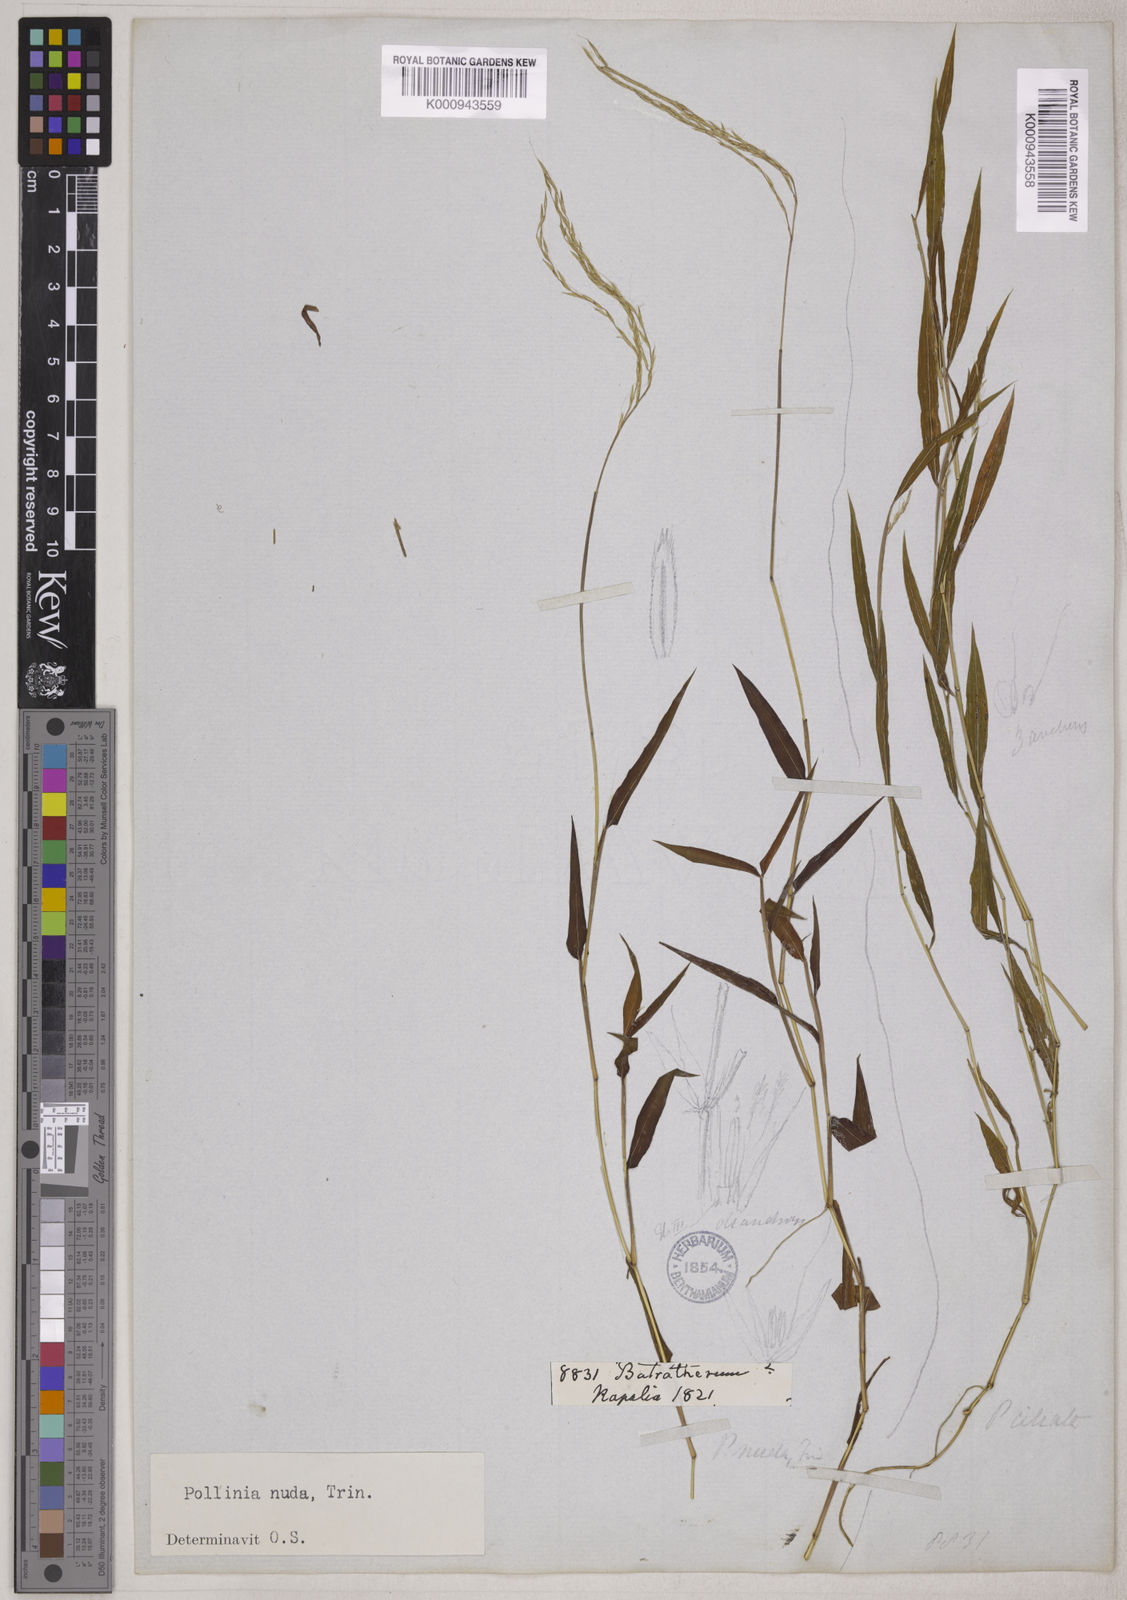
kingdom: Plantae
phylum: Tracheophyta
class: Liliopsida
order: Poales
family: Poaceae
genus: Microstegium
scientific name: Microstegium nudum
